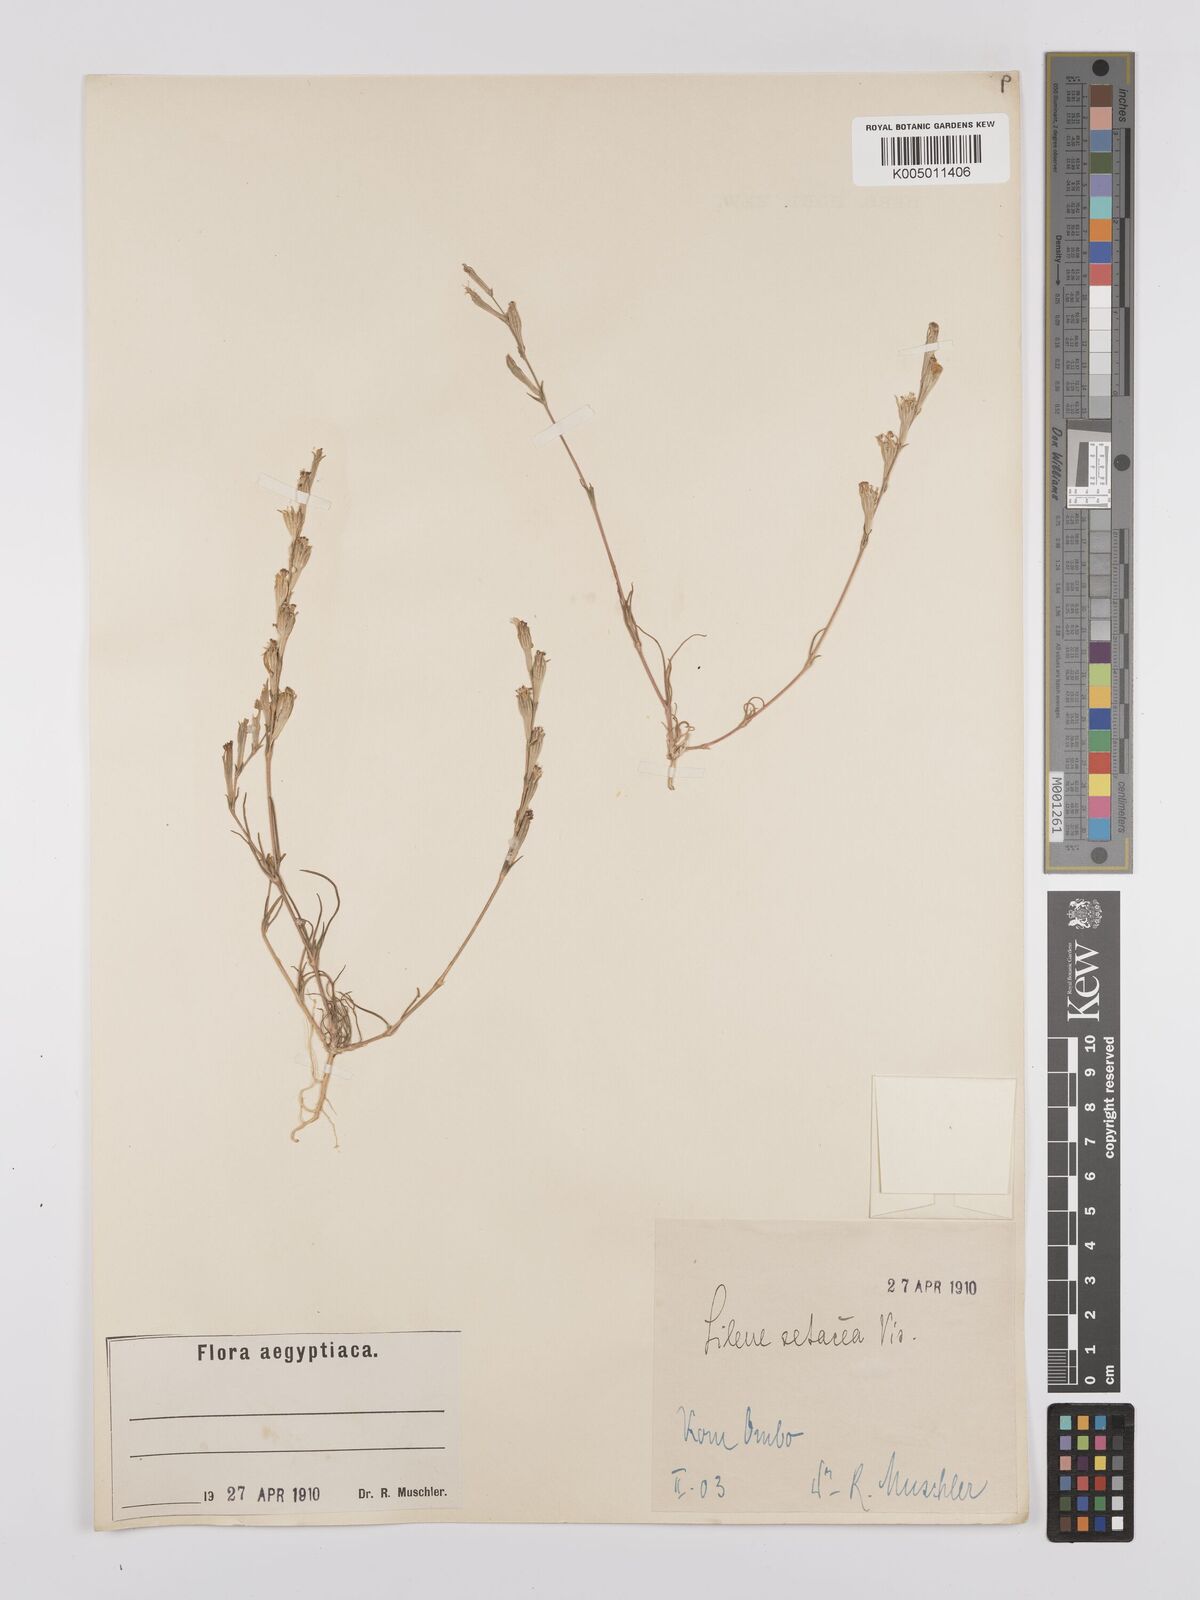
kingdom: Plantae
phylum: Tracheophyta
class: Magnoliopsida
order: Caryophyllales
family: Caryophyllaceae
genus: Silene
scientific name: Silene vivianii
